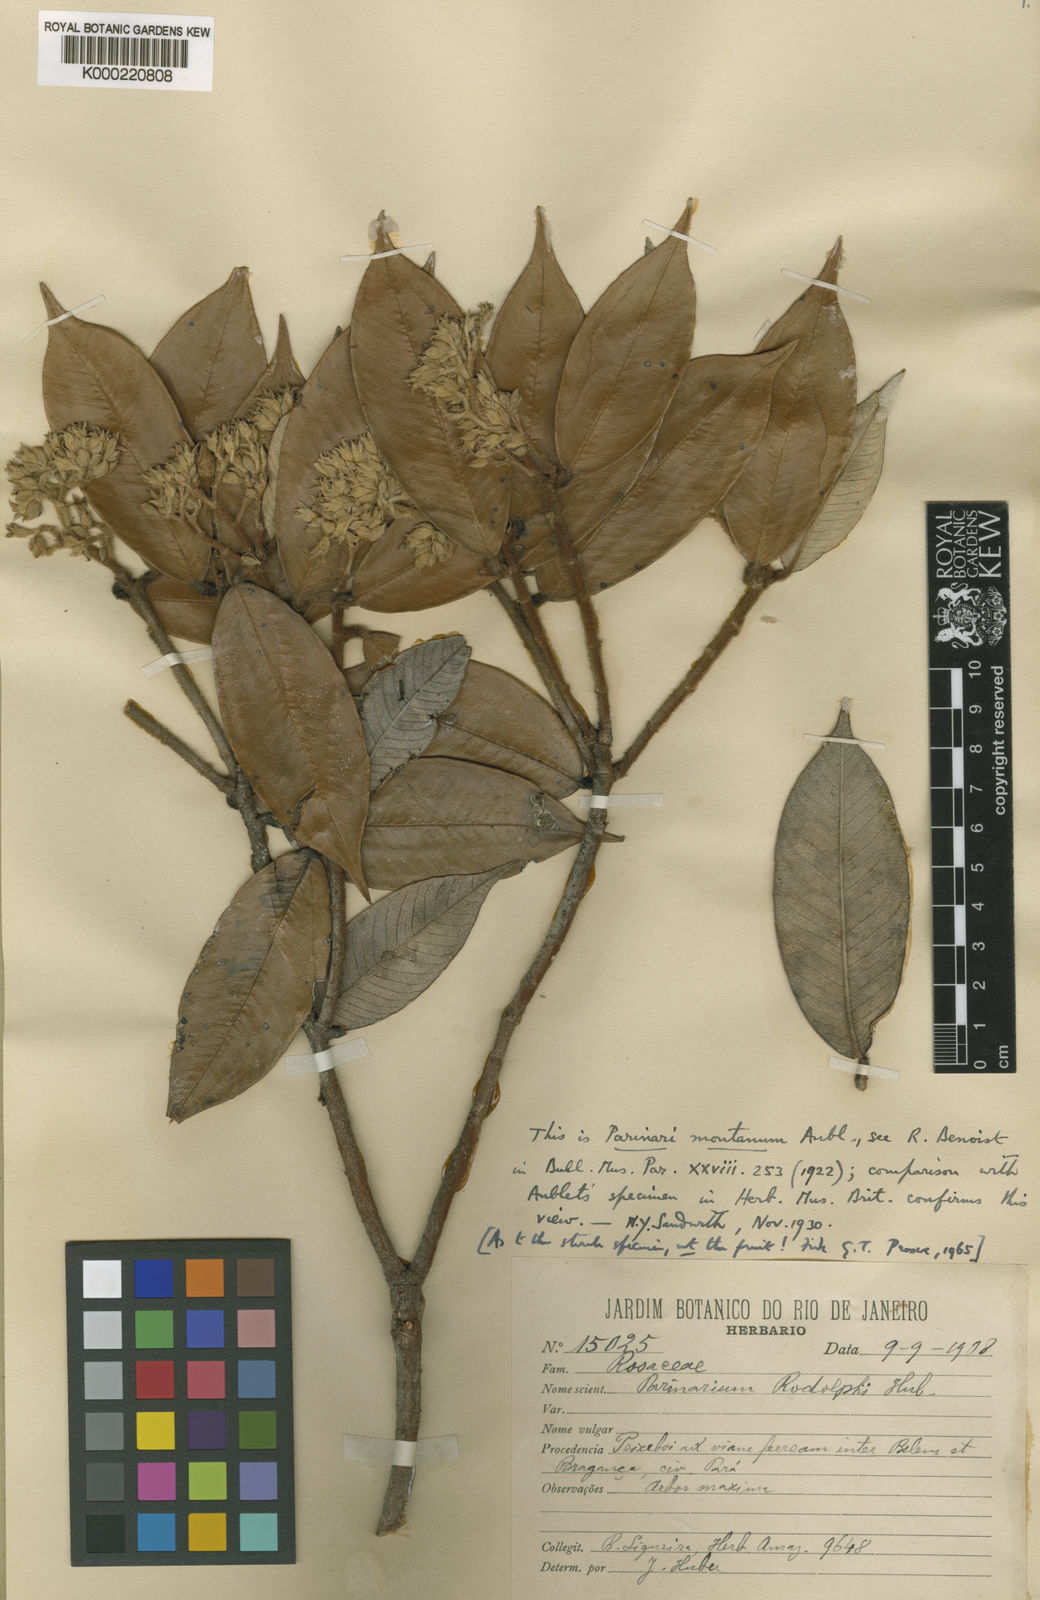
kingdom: Plantae
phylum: Tracheophyta
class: Magnoliopsida
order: Malpighiales
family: Chrysobalanaceae
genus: Parinari
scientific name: Parinari
